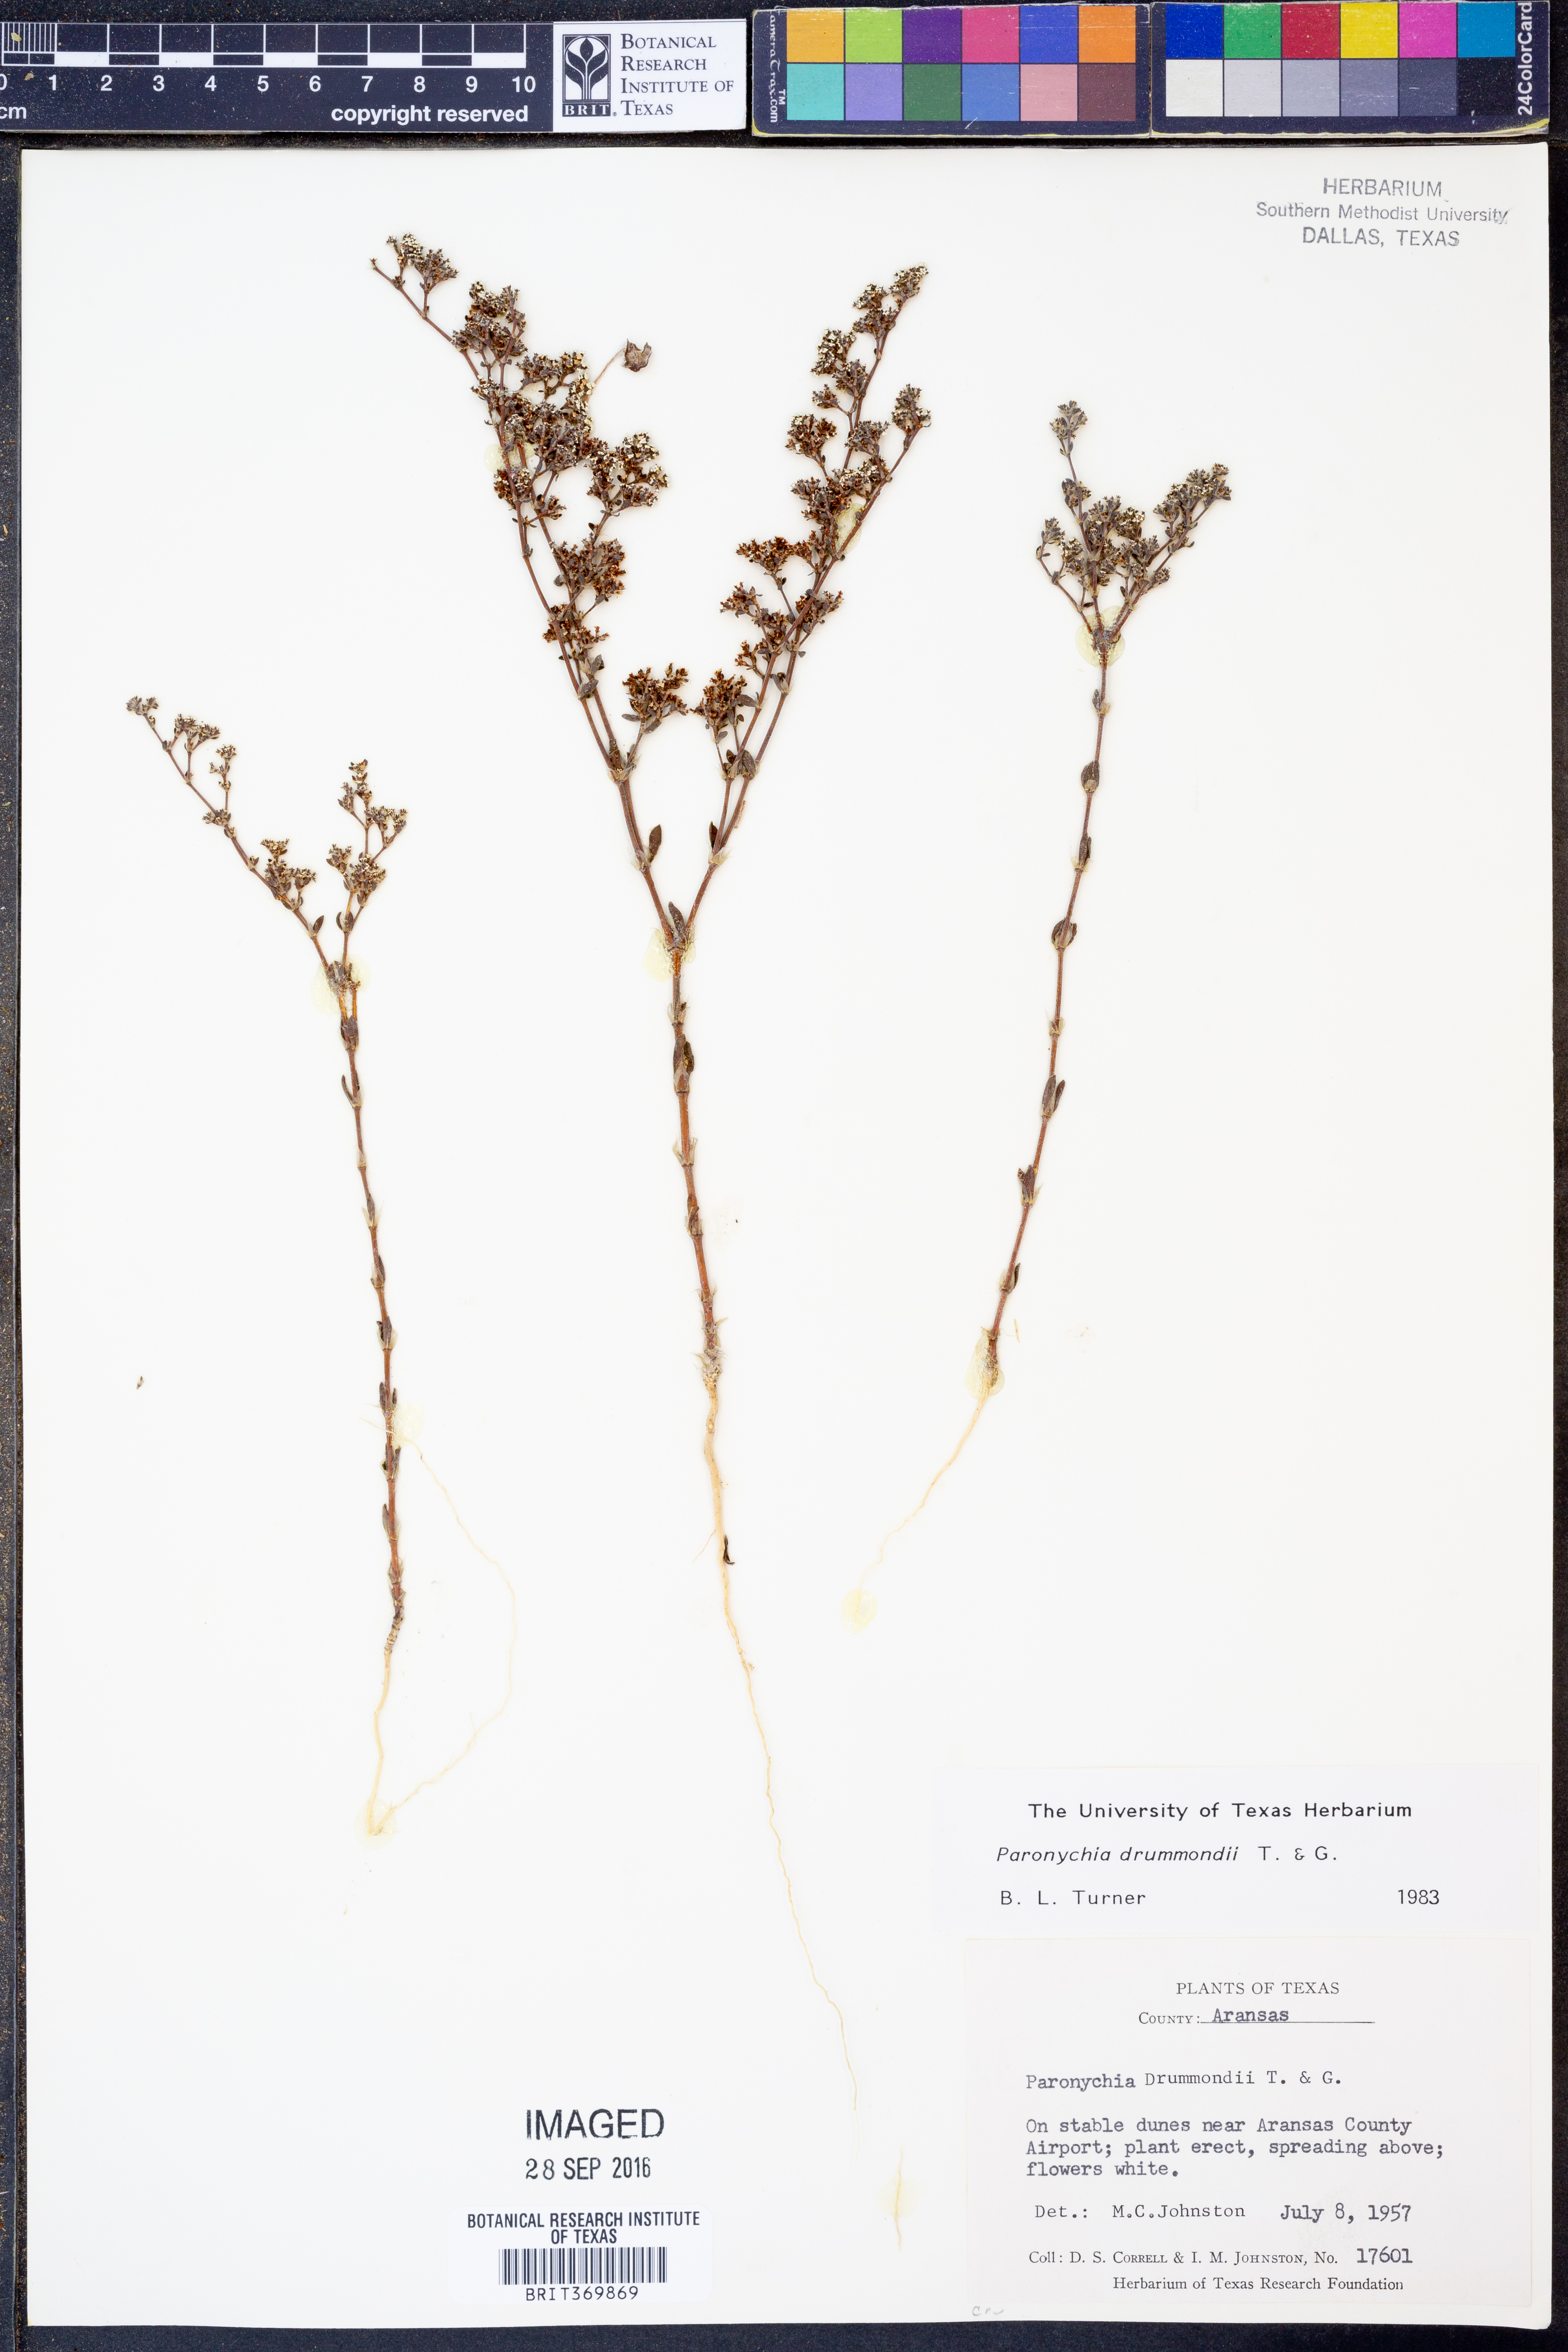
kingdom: Plantae
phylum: Tracheophyta
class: Magnoliopsida
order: Caryophyllales
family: Caryophyllaceae
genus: Paronychia
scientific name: Paronychia drummondii
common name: Drummond's nailwort
